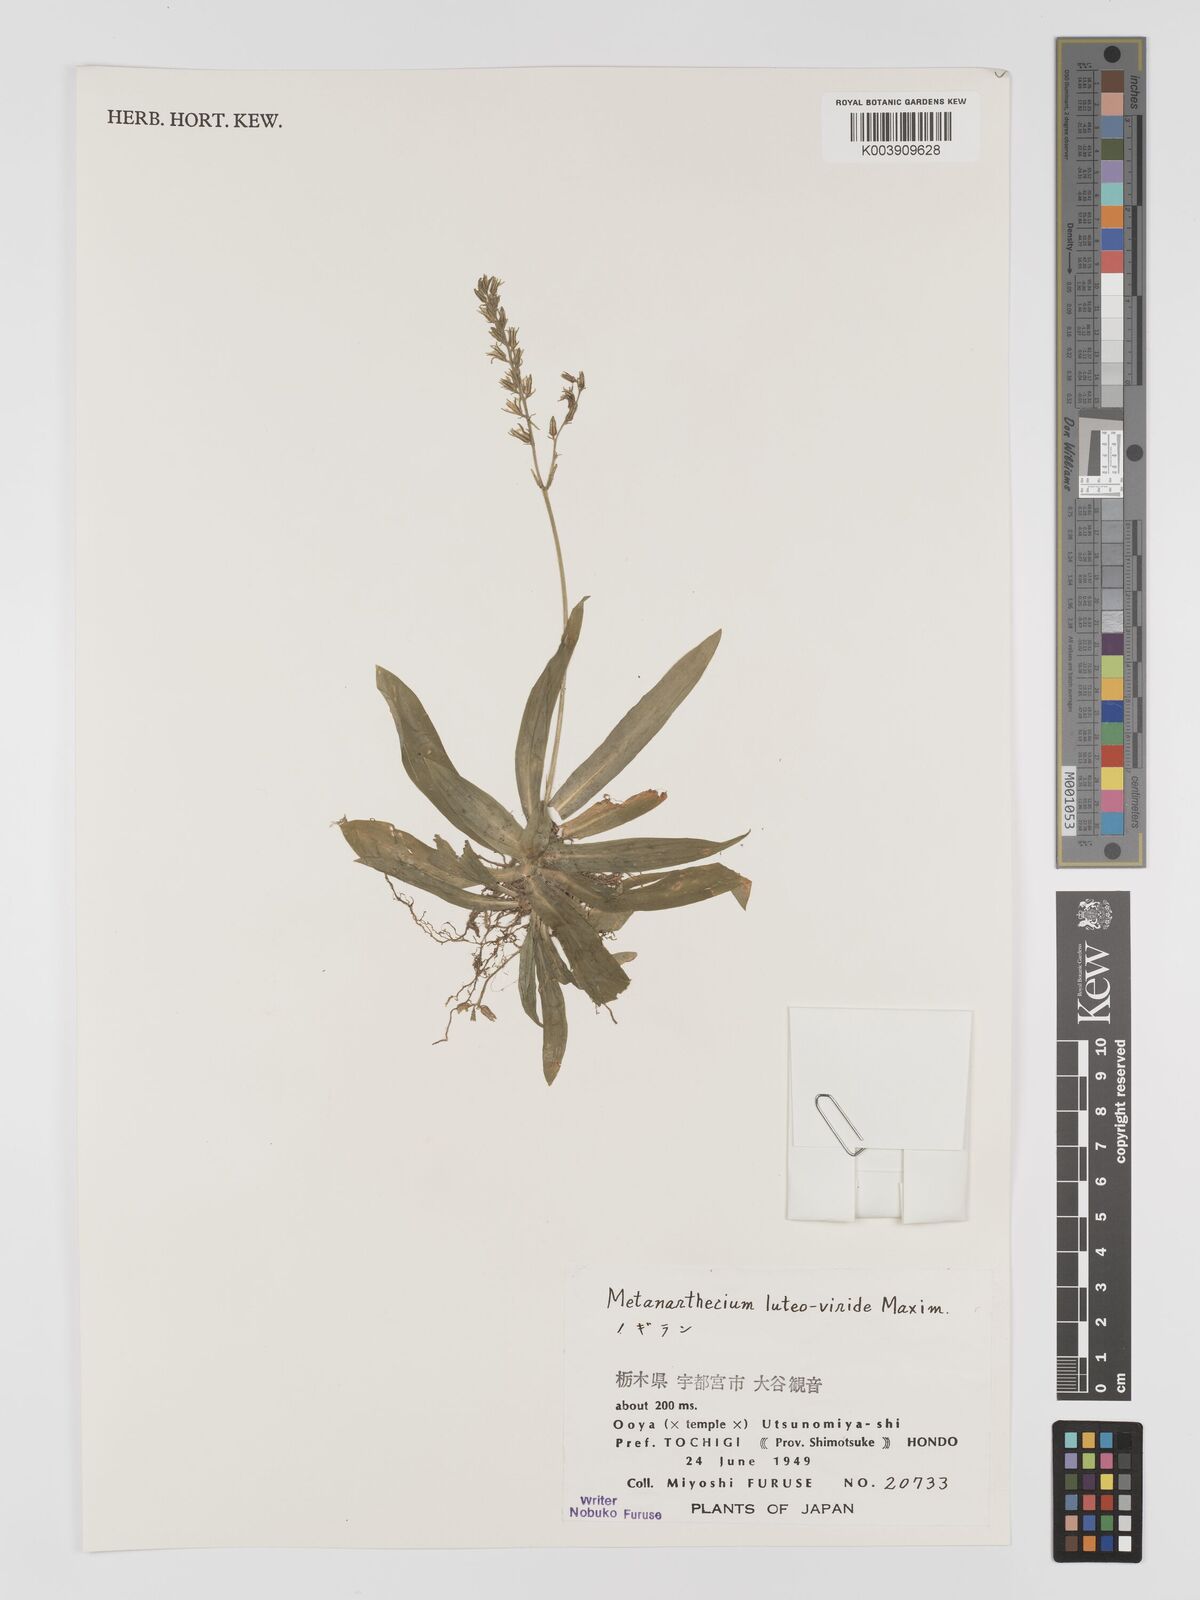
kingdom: Plantae
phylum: Tracheophyta
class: Liliopsida
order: Dioscoreales
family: Nartheciaceae
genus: Metanarthecium
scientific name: Metanarthecium luteoviride
